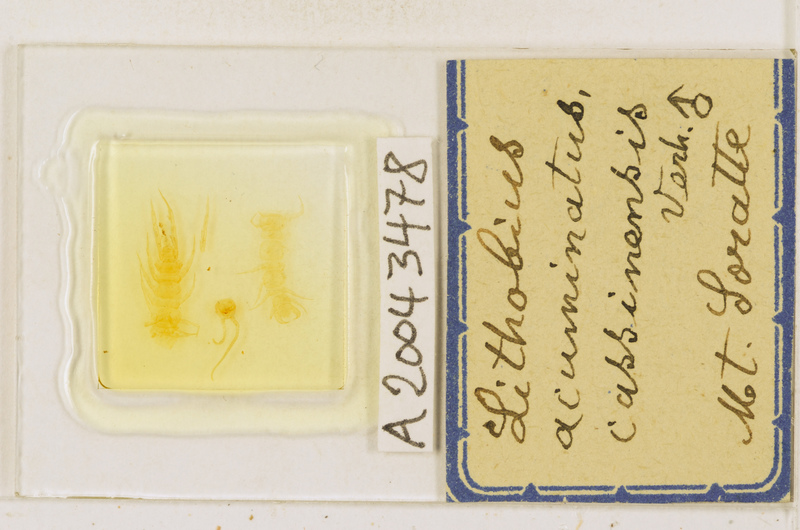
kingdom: Animalia
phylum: Arthropoda
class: Chilopoda
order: Lithobiomorpha
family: Lithobiidae
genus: Lithobius
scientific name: Lithobius acuminatus
